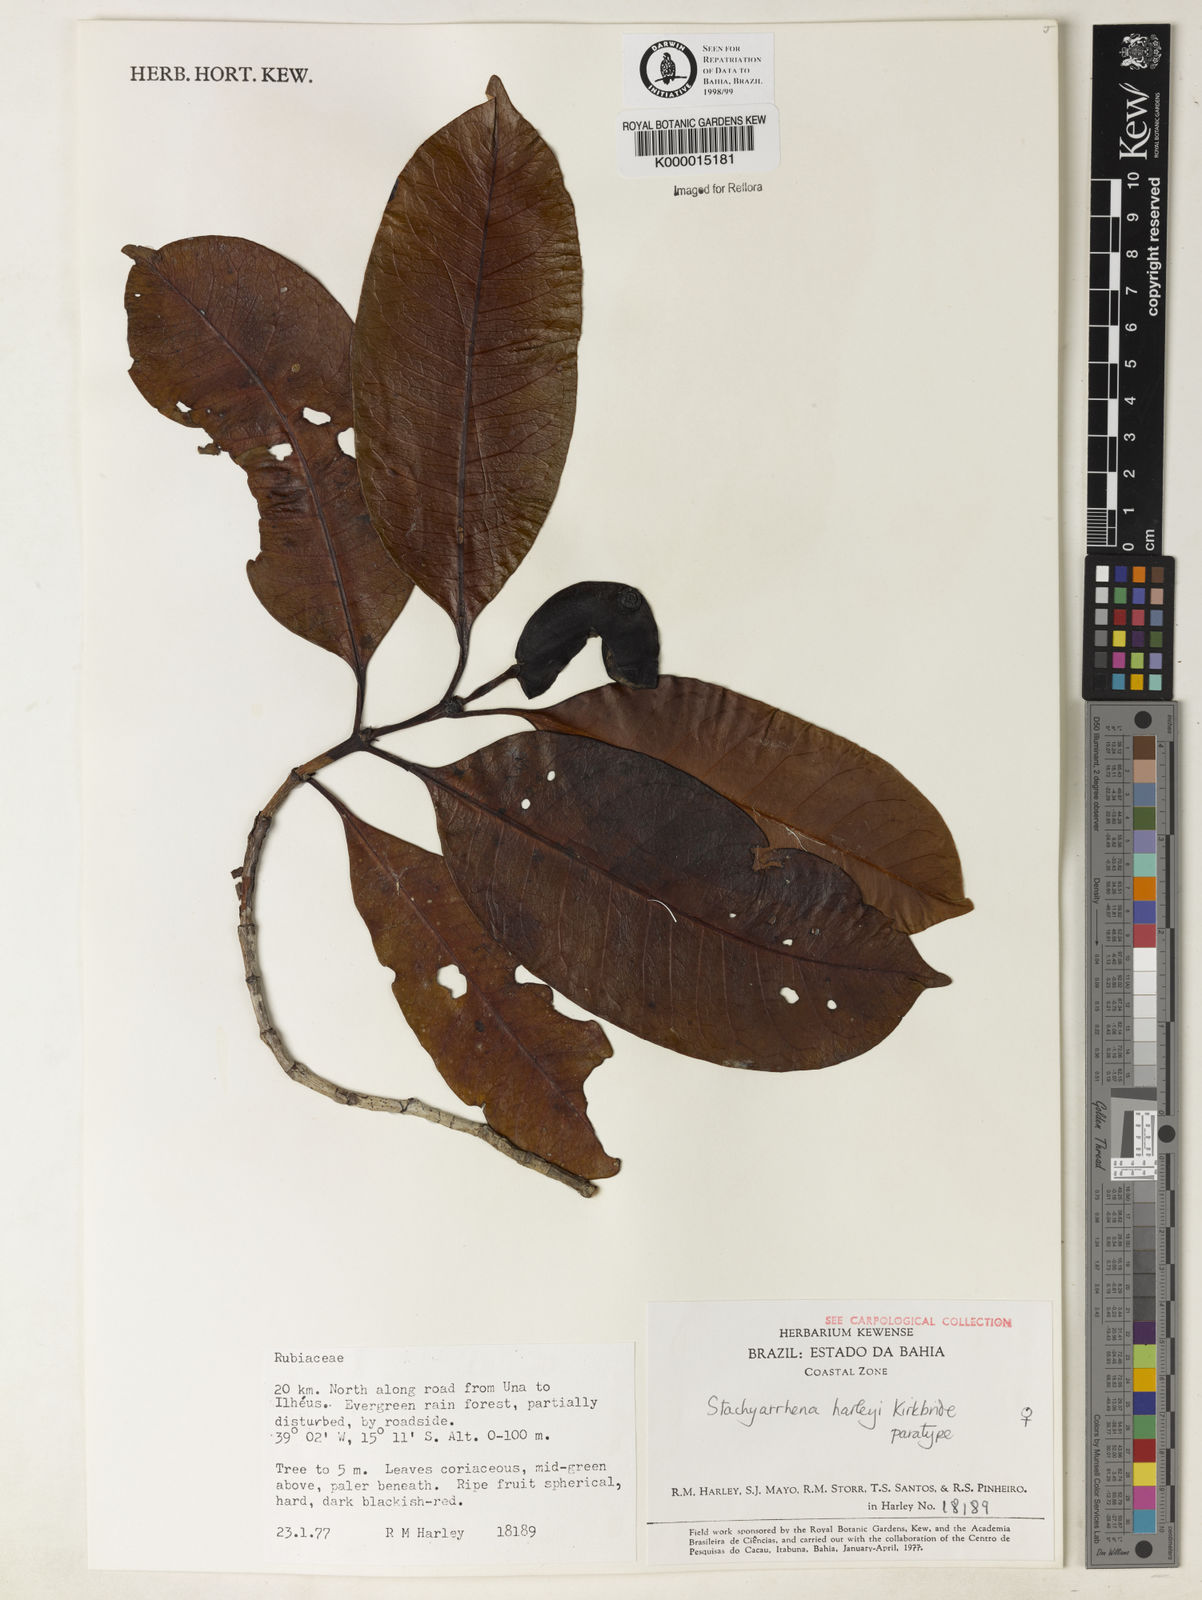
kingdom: Plantae
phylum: Tracheophyta
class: Magnoliopsida
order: Gentianales
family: Rubiaceae
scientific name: Rubiaceae
